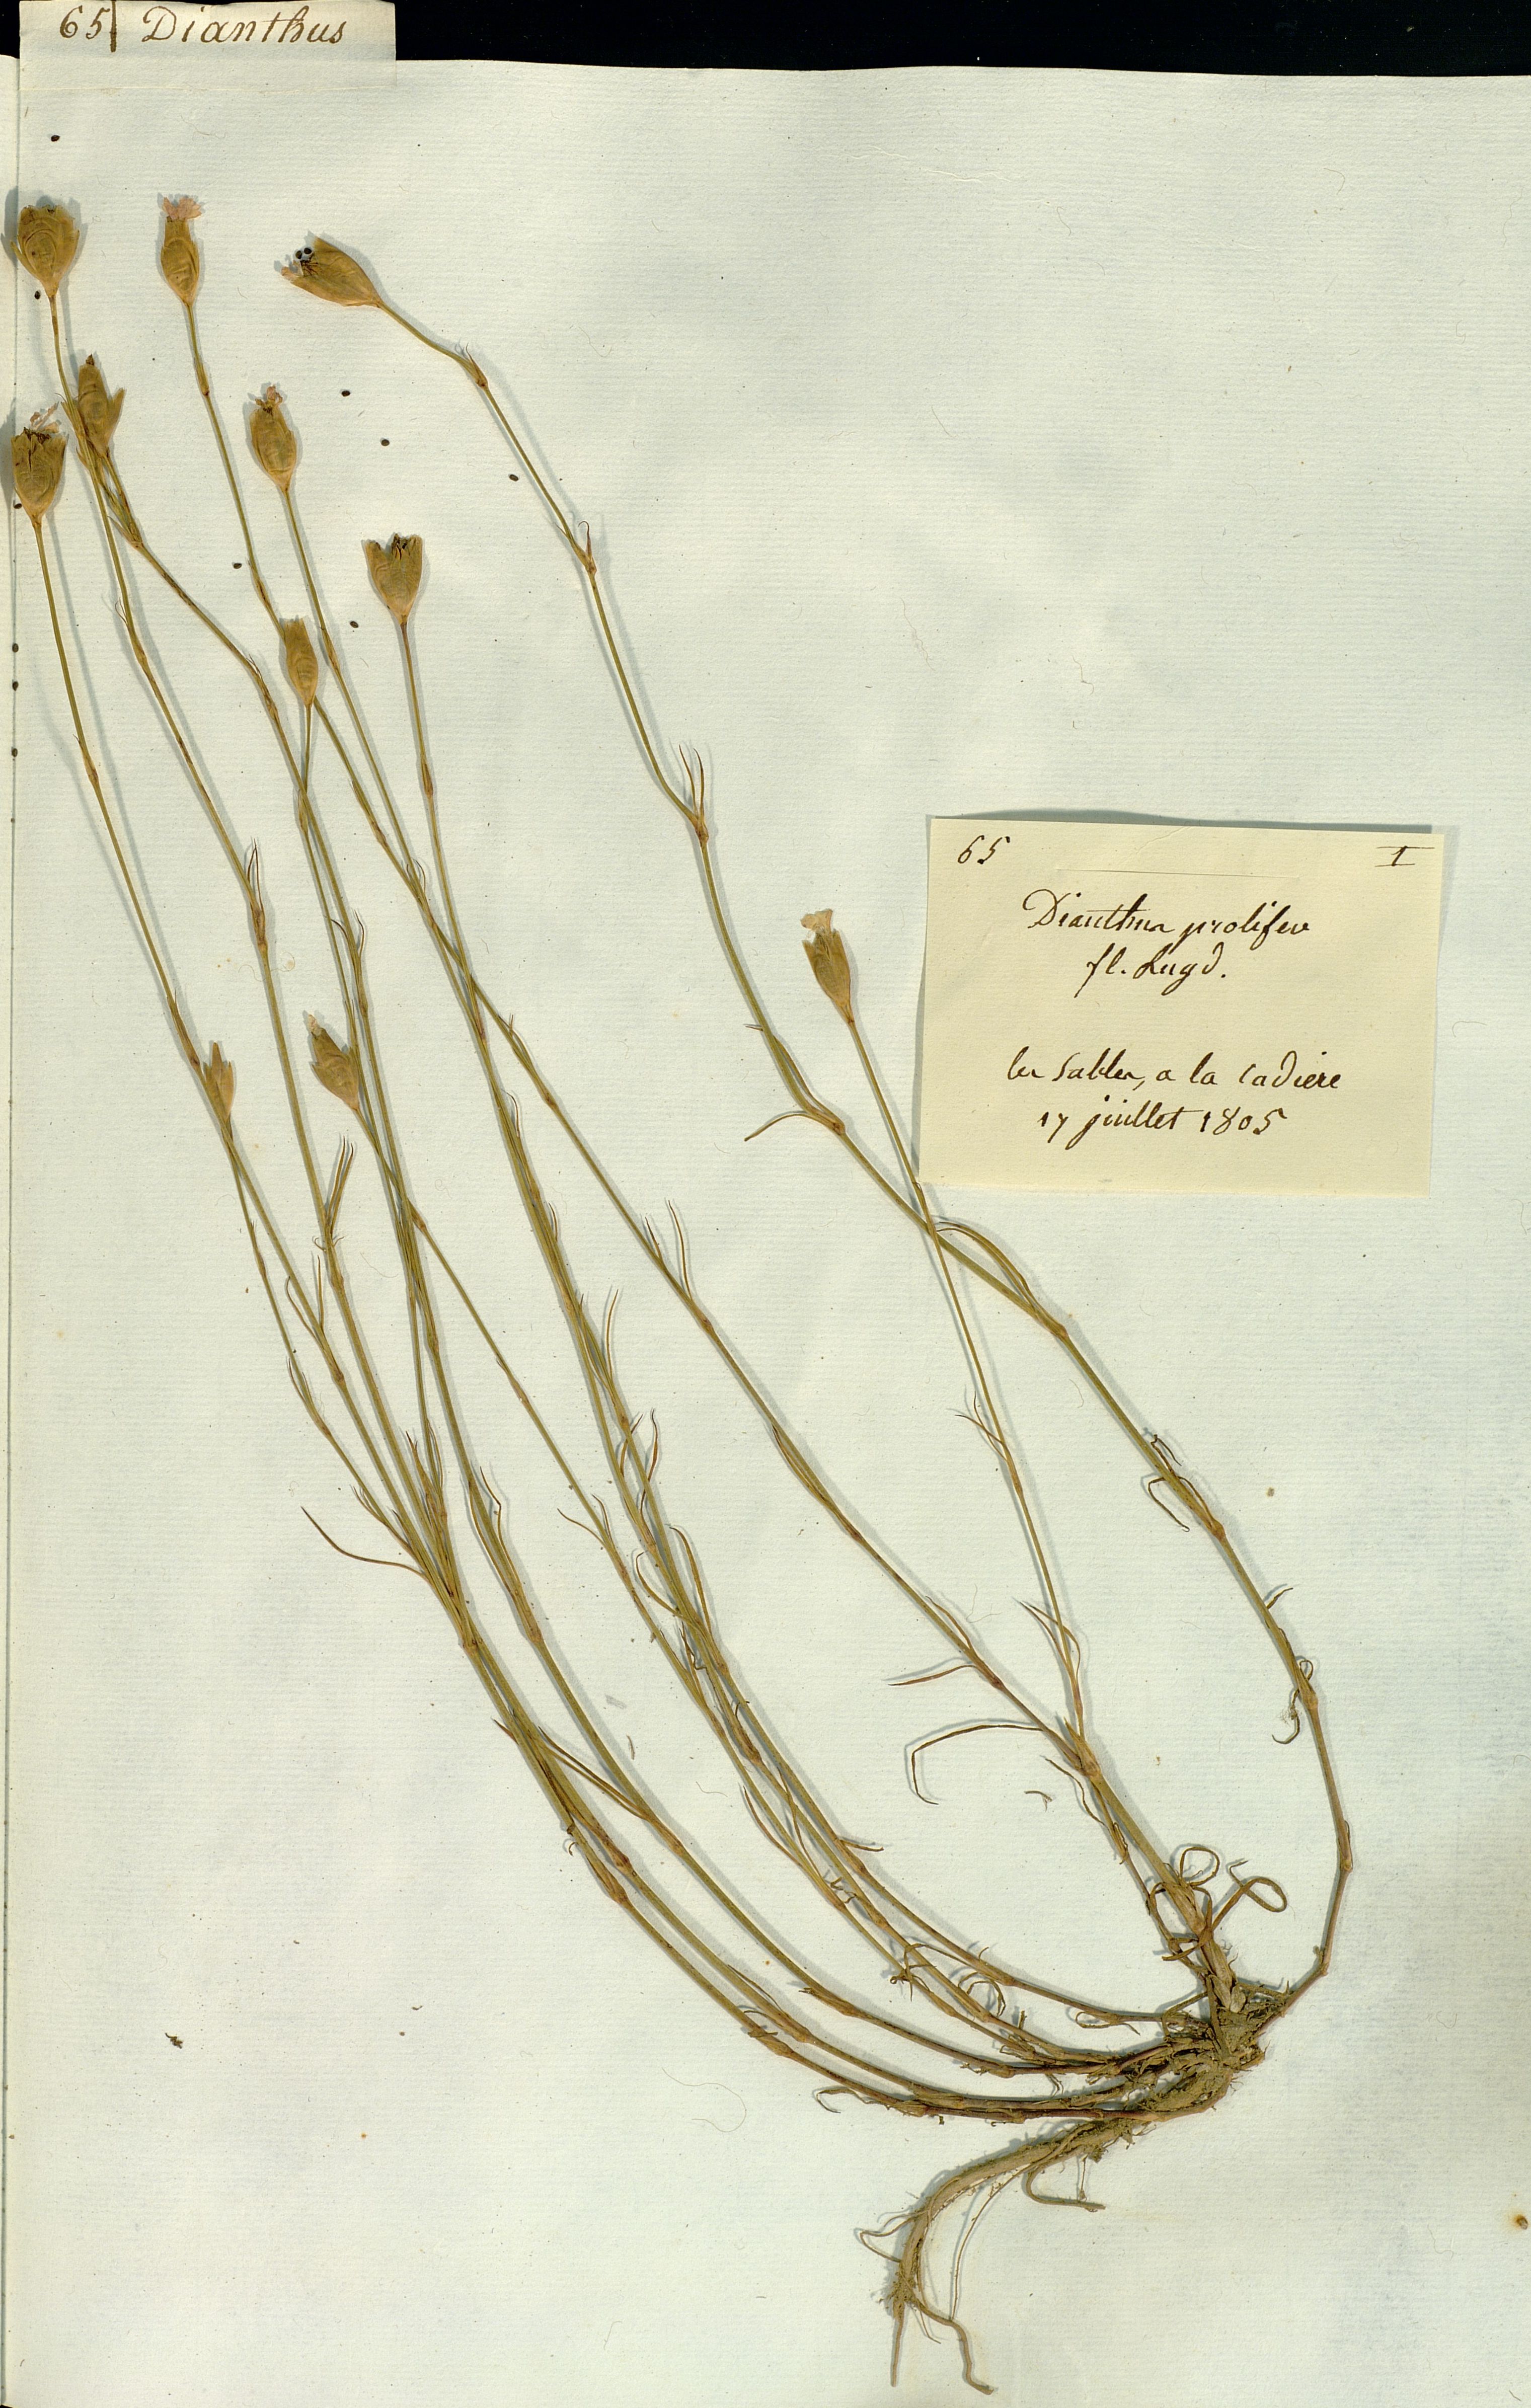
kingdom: Plantae
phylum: Tracheophyta
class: Magnoliopsida
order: Caryophyllales
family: Caryophyllaceae
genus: Dianthus
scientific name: Dianthus prolifer
